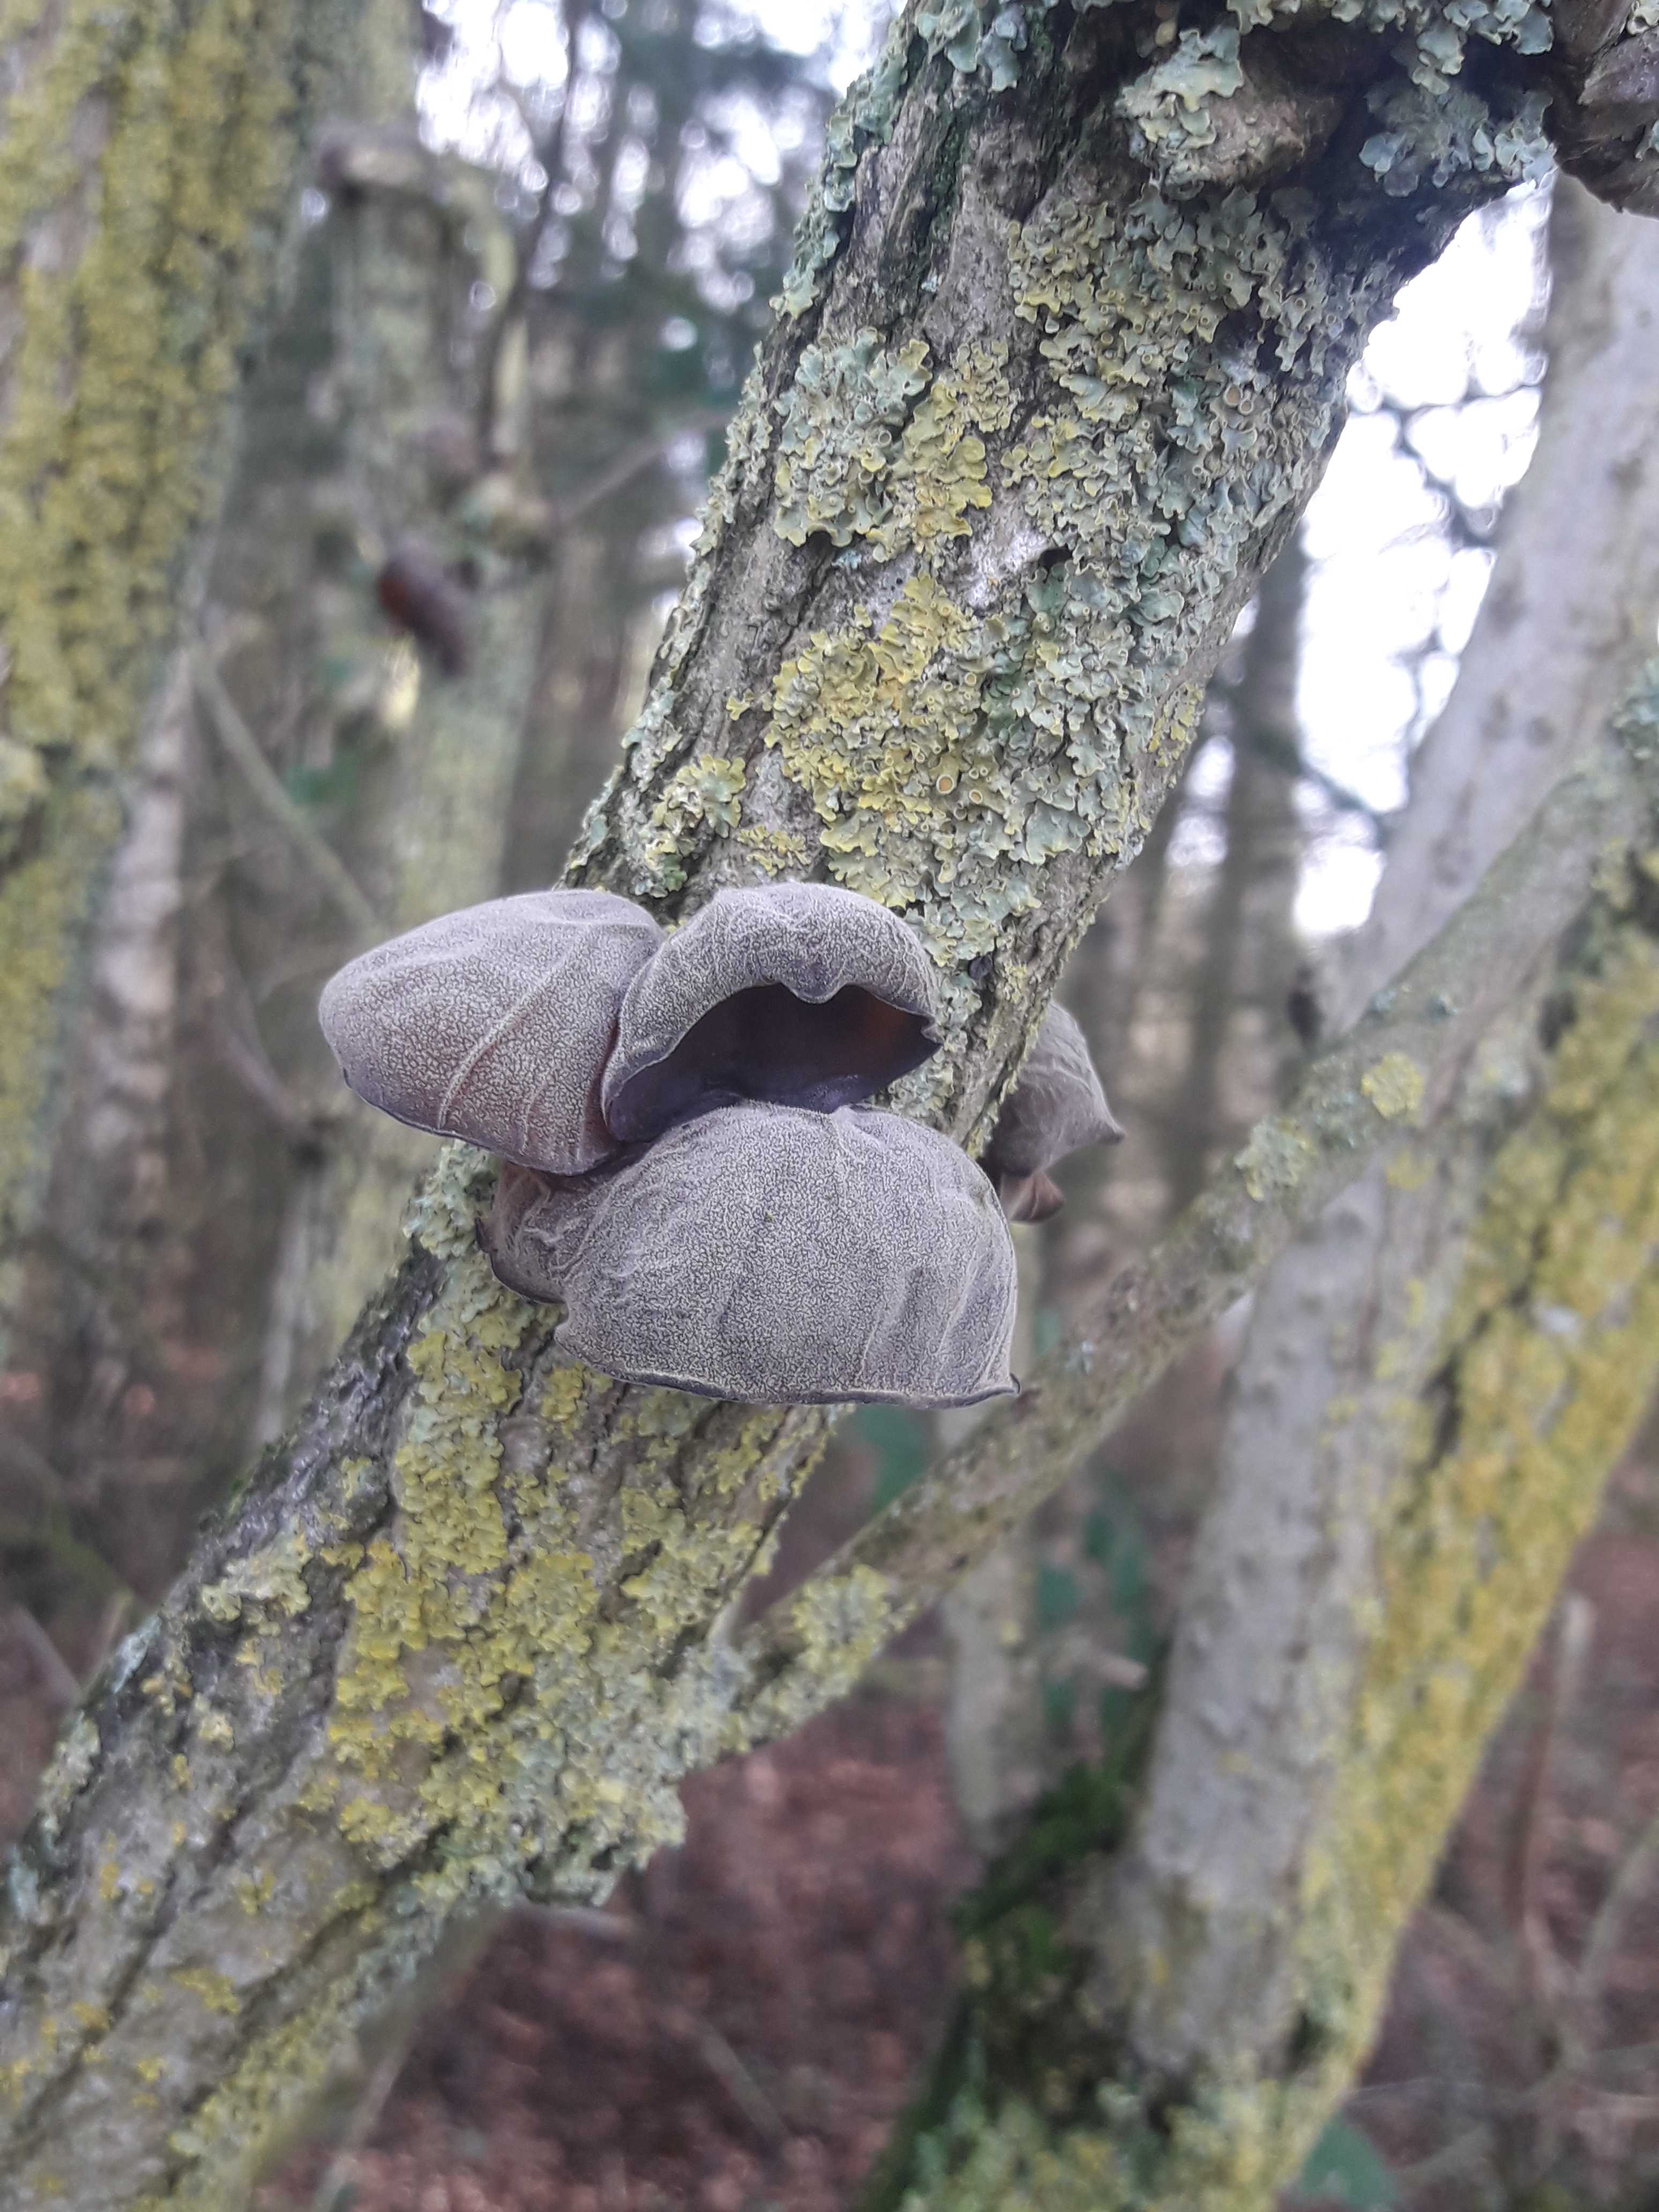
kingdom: Fungi
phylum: Basidiomycota
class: Agaricomycetes
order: Auriculariales
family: Auriculariaceae
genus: Auricularia
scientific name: Auricularia auricula-judae
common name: almindelig judasøre
